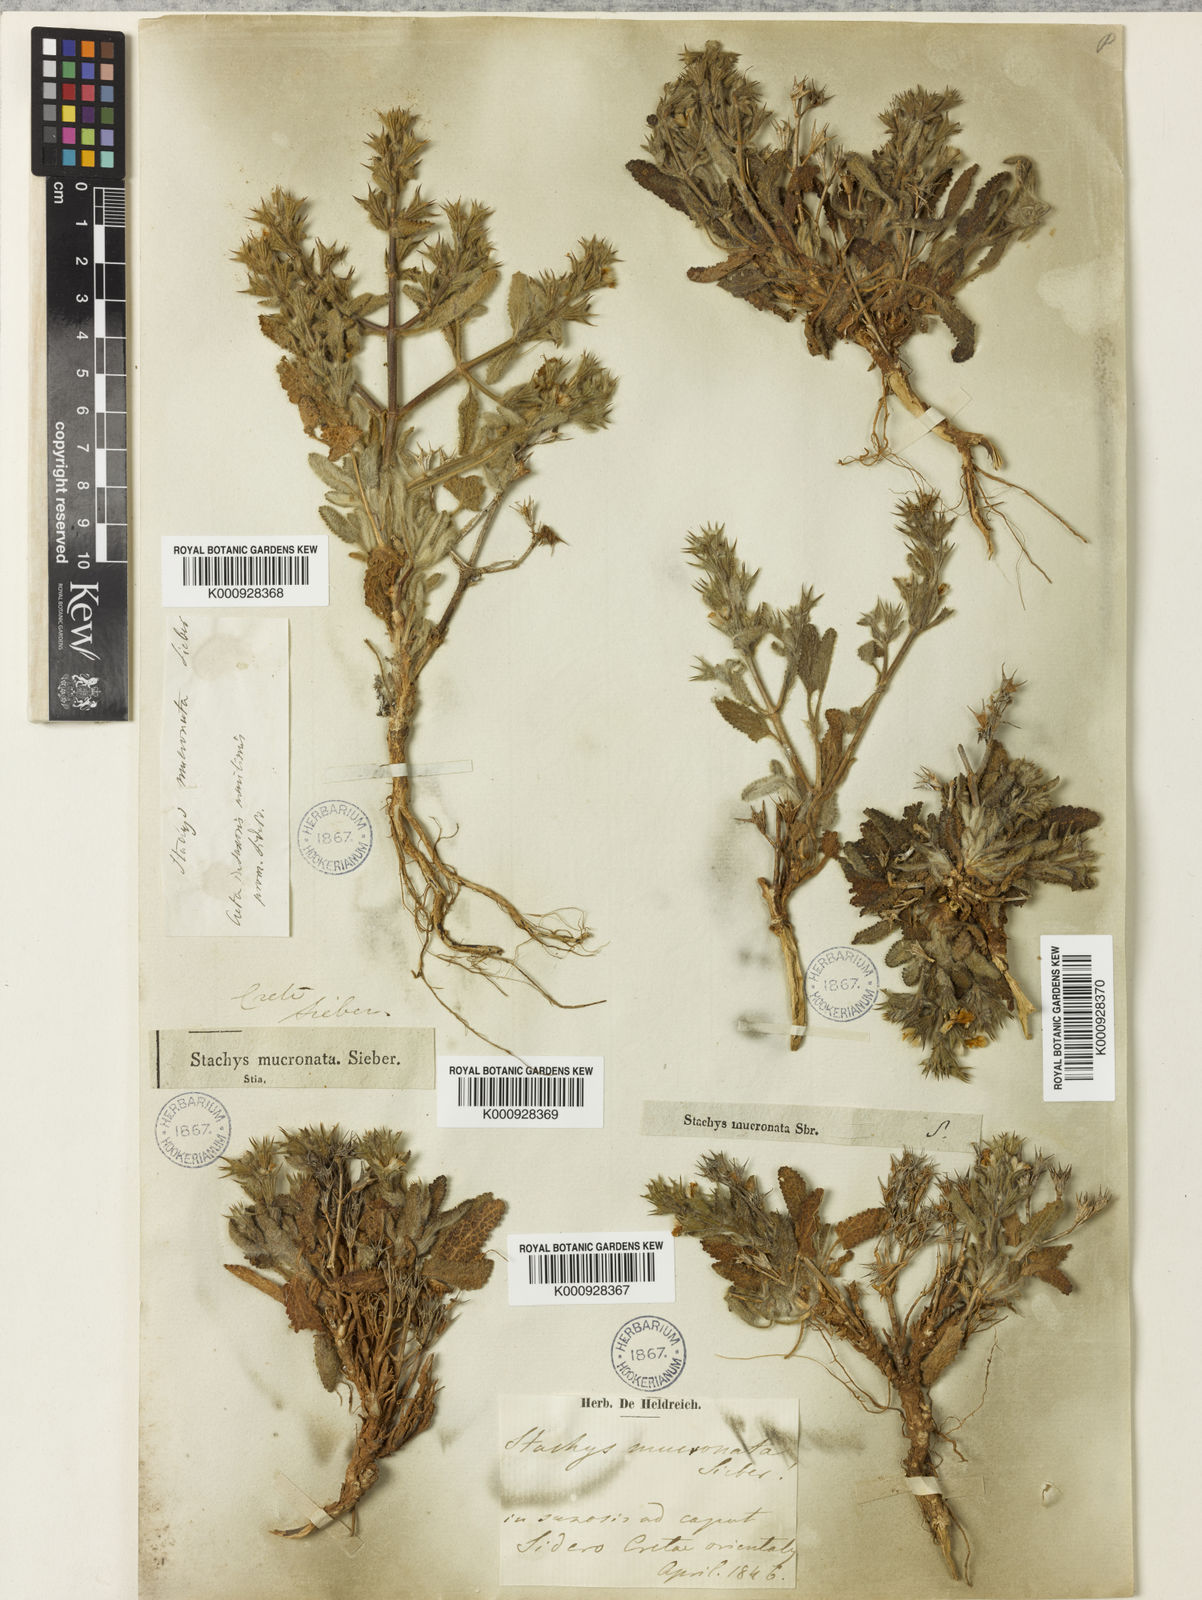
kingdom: Plantae
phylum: Tracheophyta
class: Magnoliopsida
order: Lamiales
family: Lamiaceae
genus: Stachys
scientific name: Stachys mucronata
